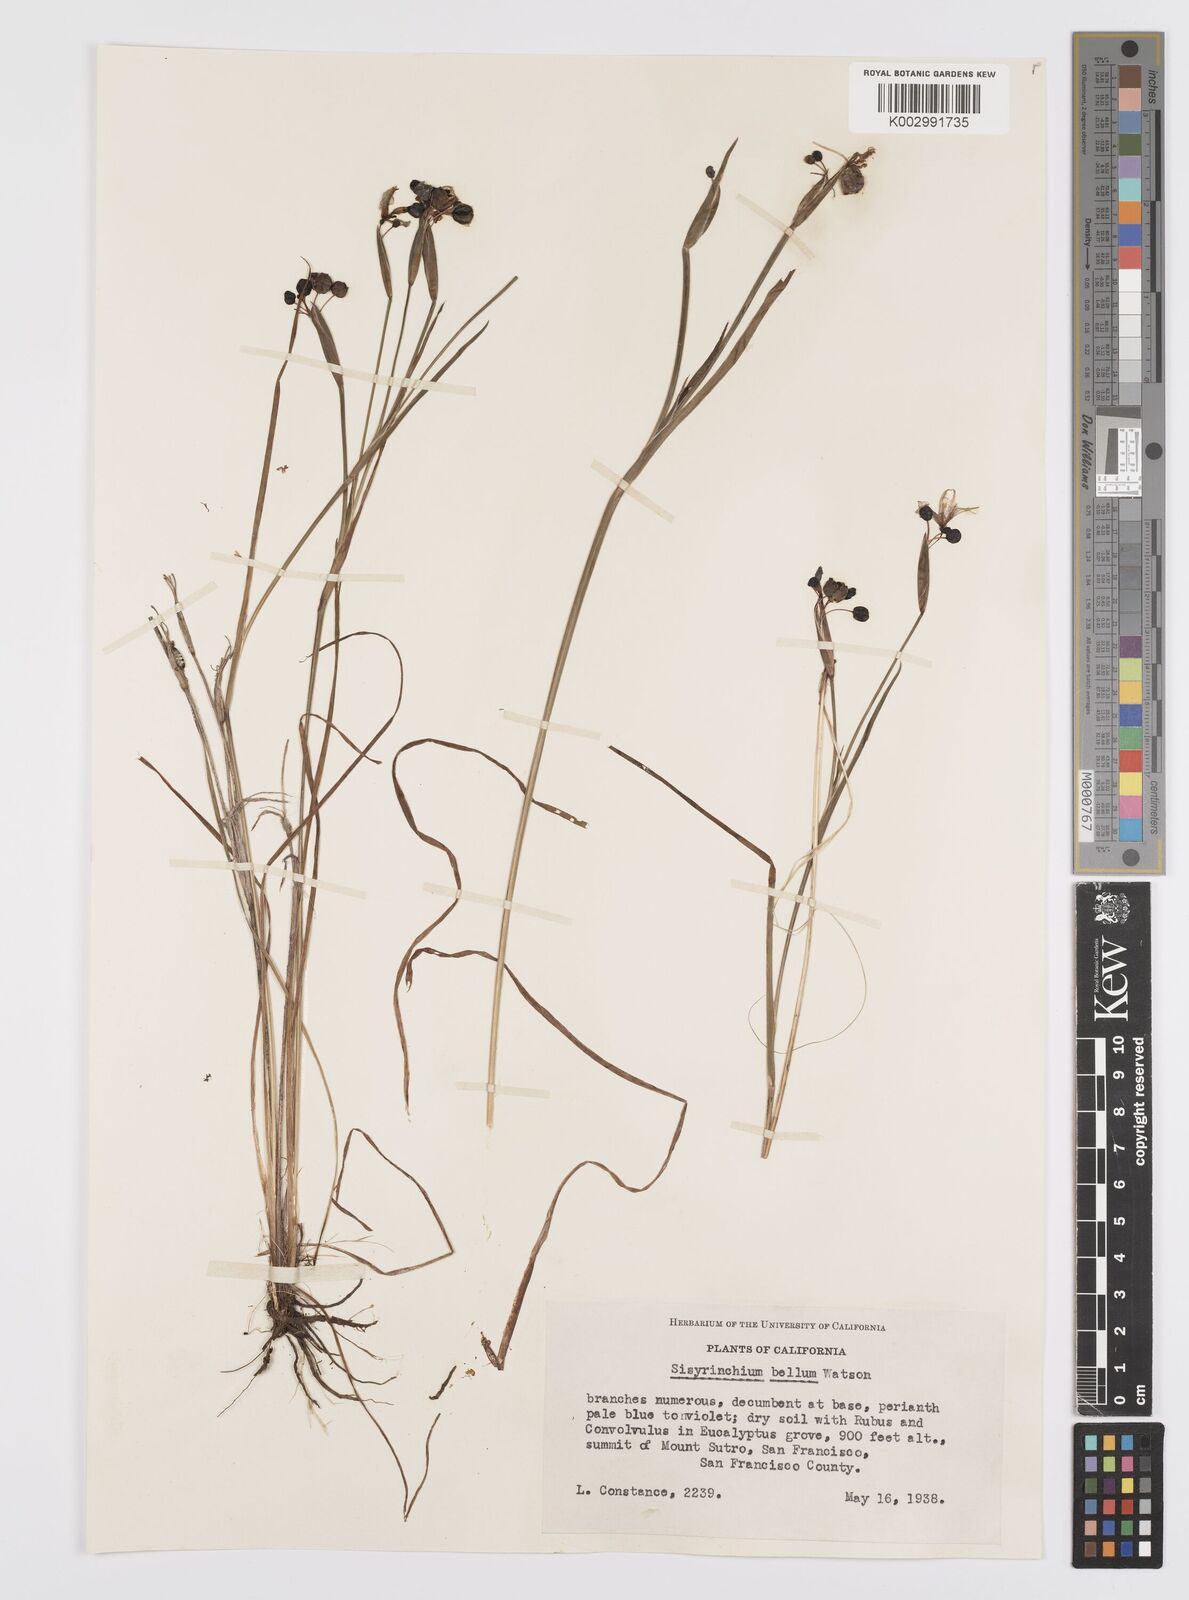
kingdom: Plantae
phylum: Tracheophyta
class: Liliopsida
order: Asparagales
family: Iridaceae
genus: Sisyrinchium
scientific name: Sisyrinchium bellum
